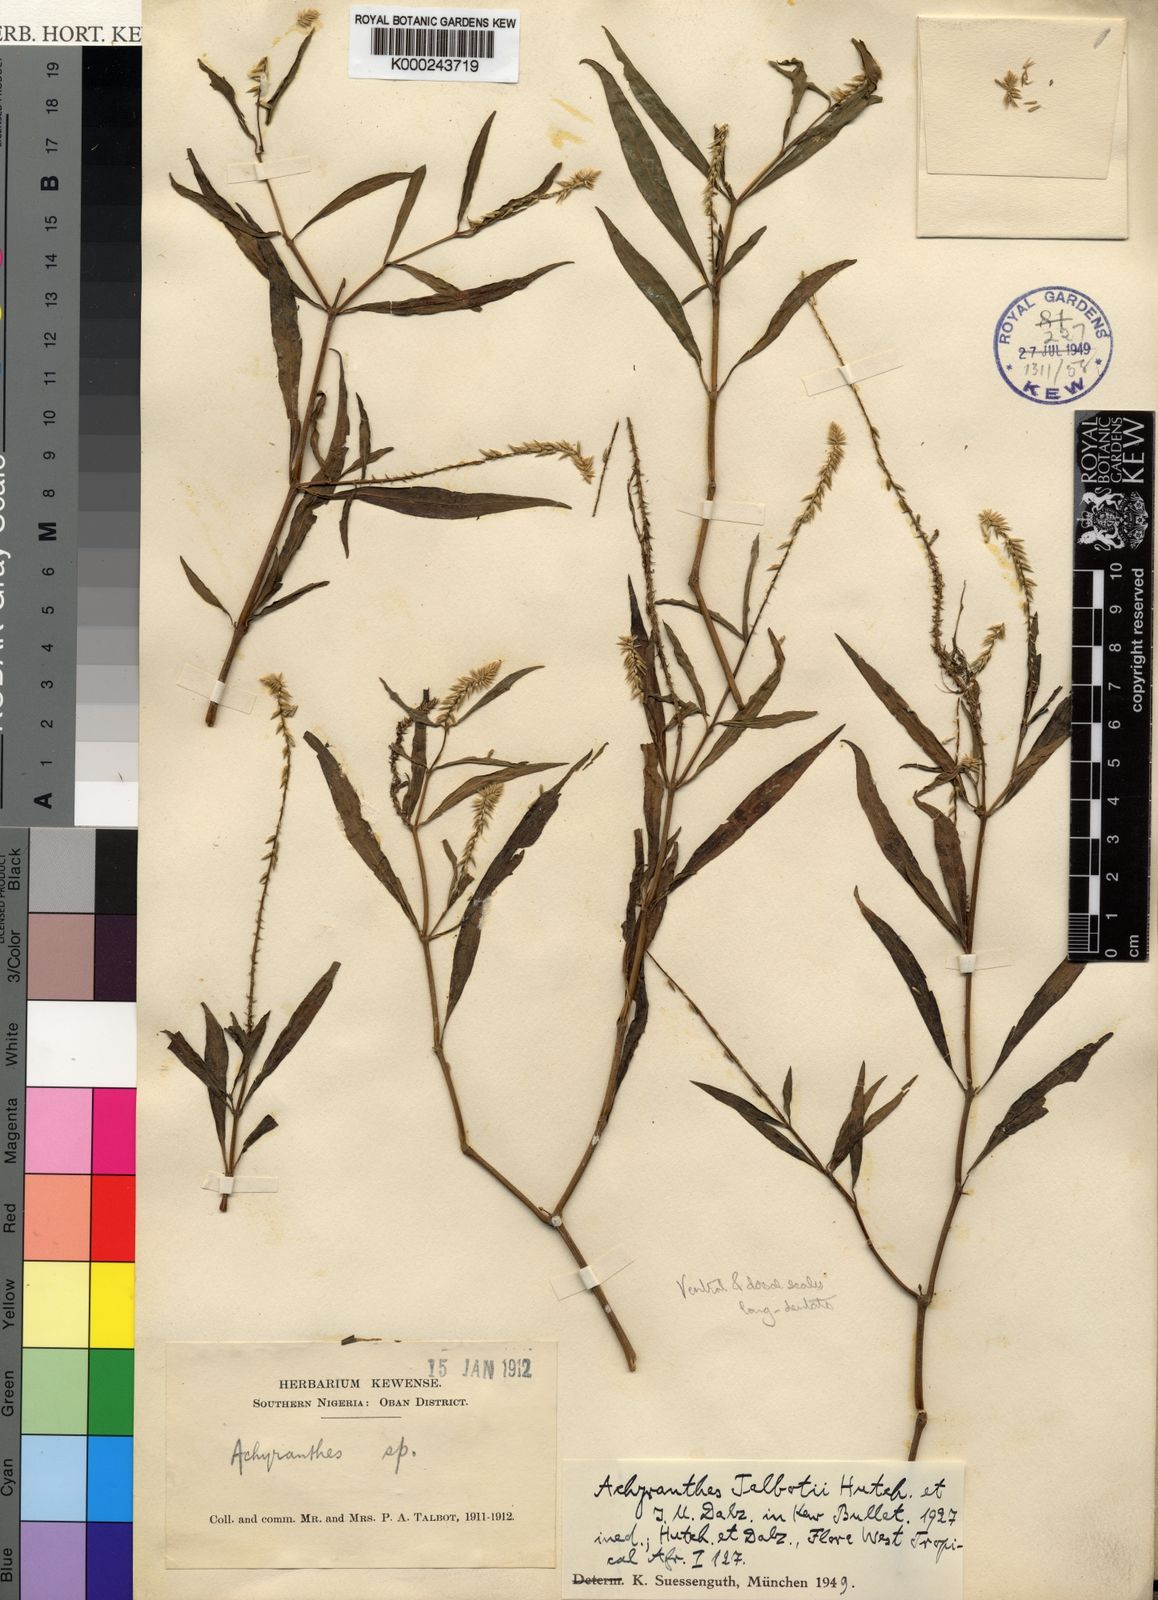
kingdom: Plantae
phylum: Tracheophyta
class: Magnoliopsida
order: Caryophyllales
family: Amaranthaceae
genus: Achyranthes
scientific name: Achyranthes talbotii
